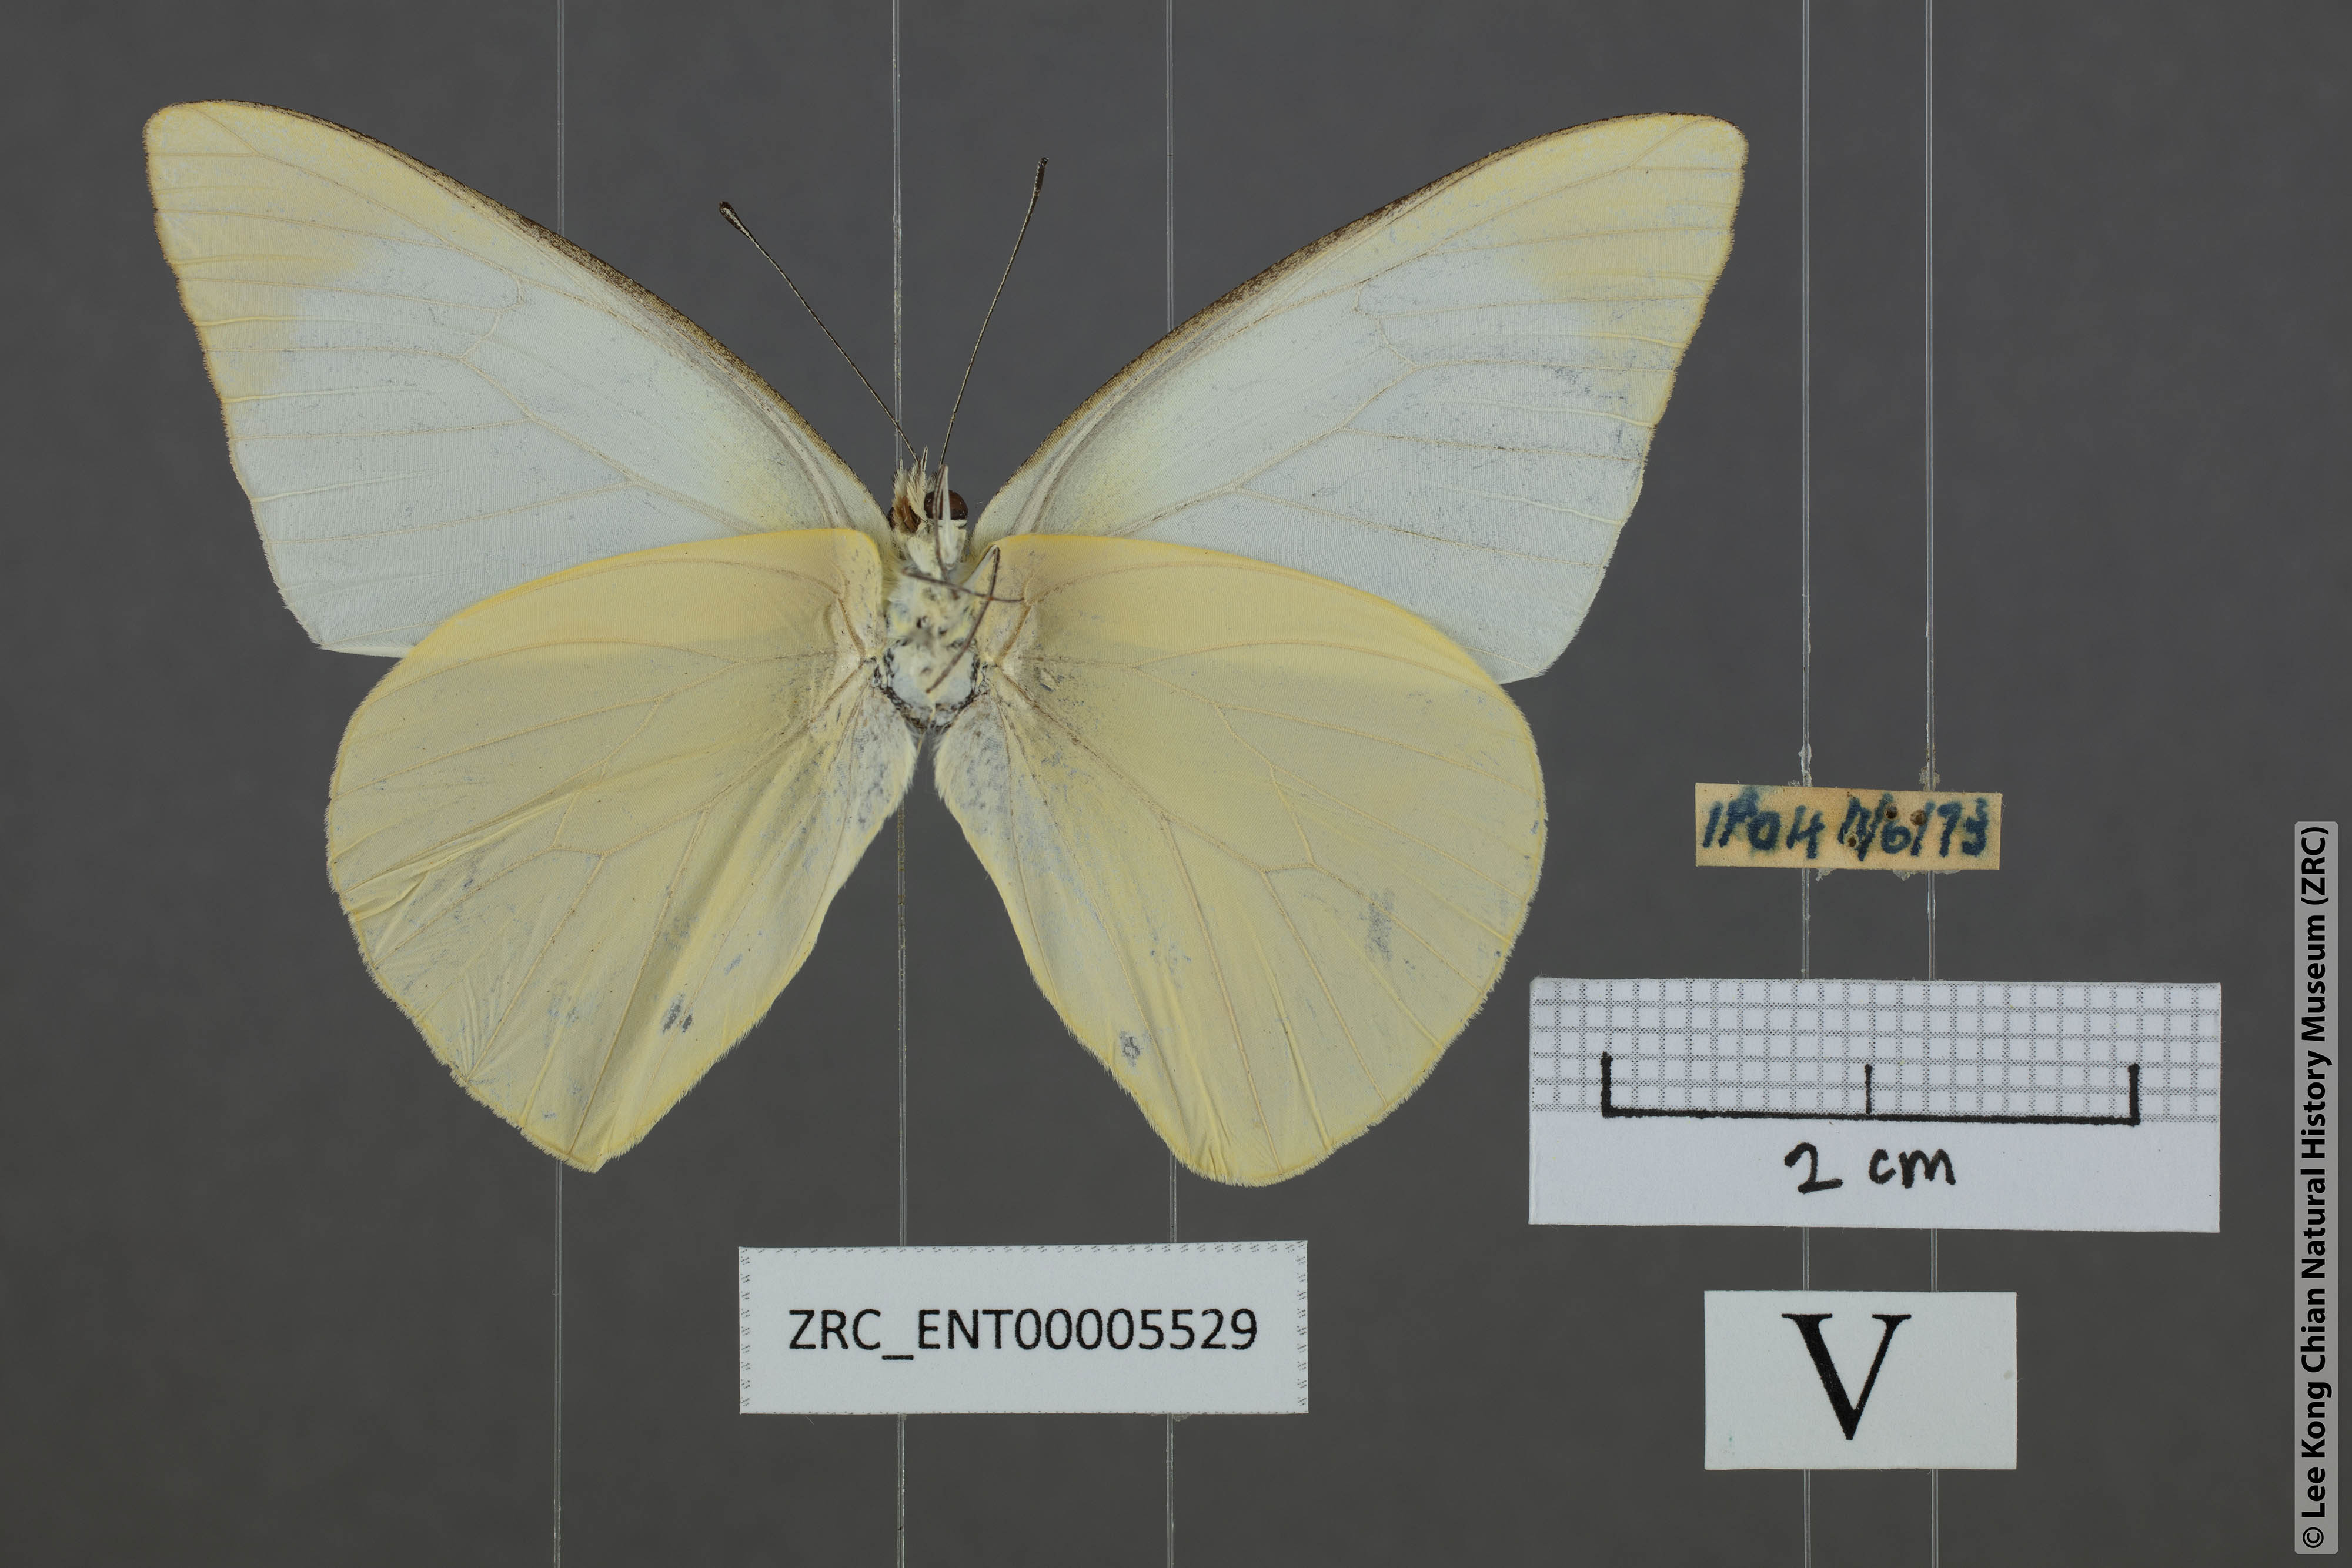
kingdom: Animalia
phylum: Arthropoda
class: Insecta
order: Lepidoptera
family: Pieridae
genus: Appias
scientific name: Appias albina
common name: Common albatross
